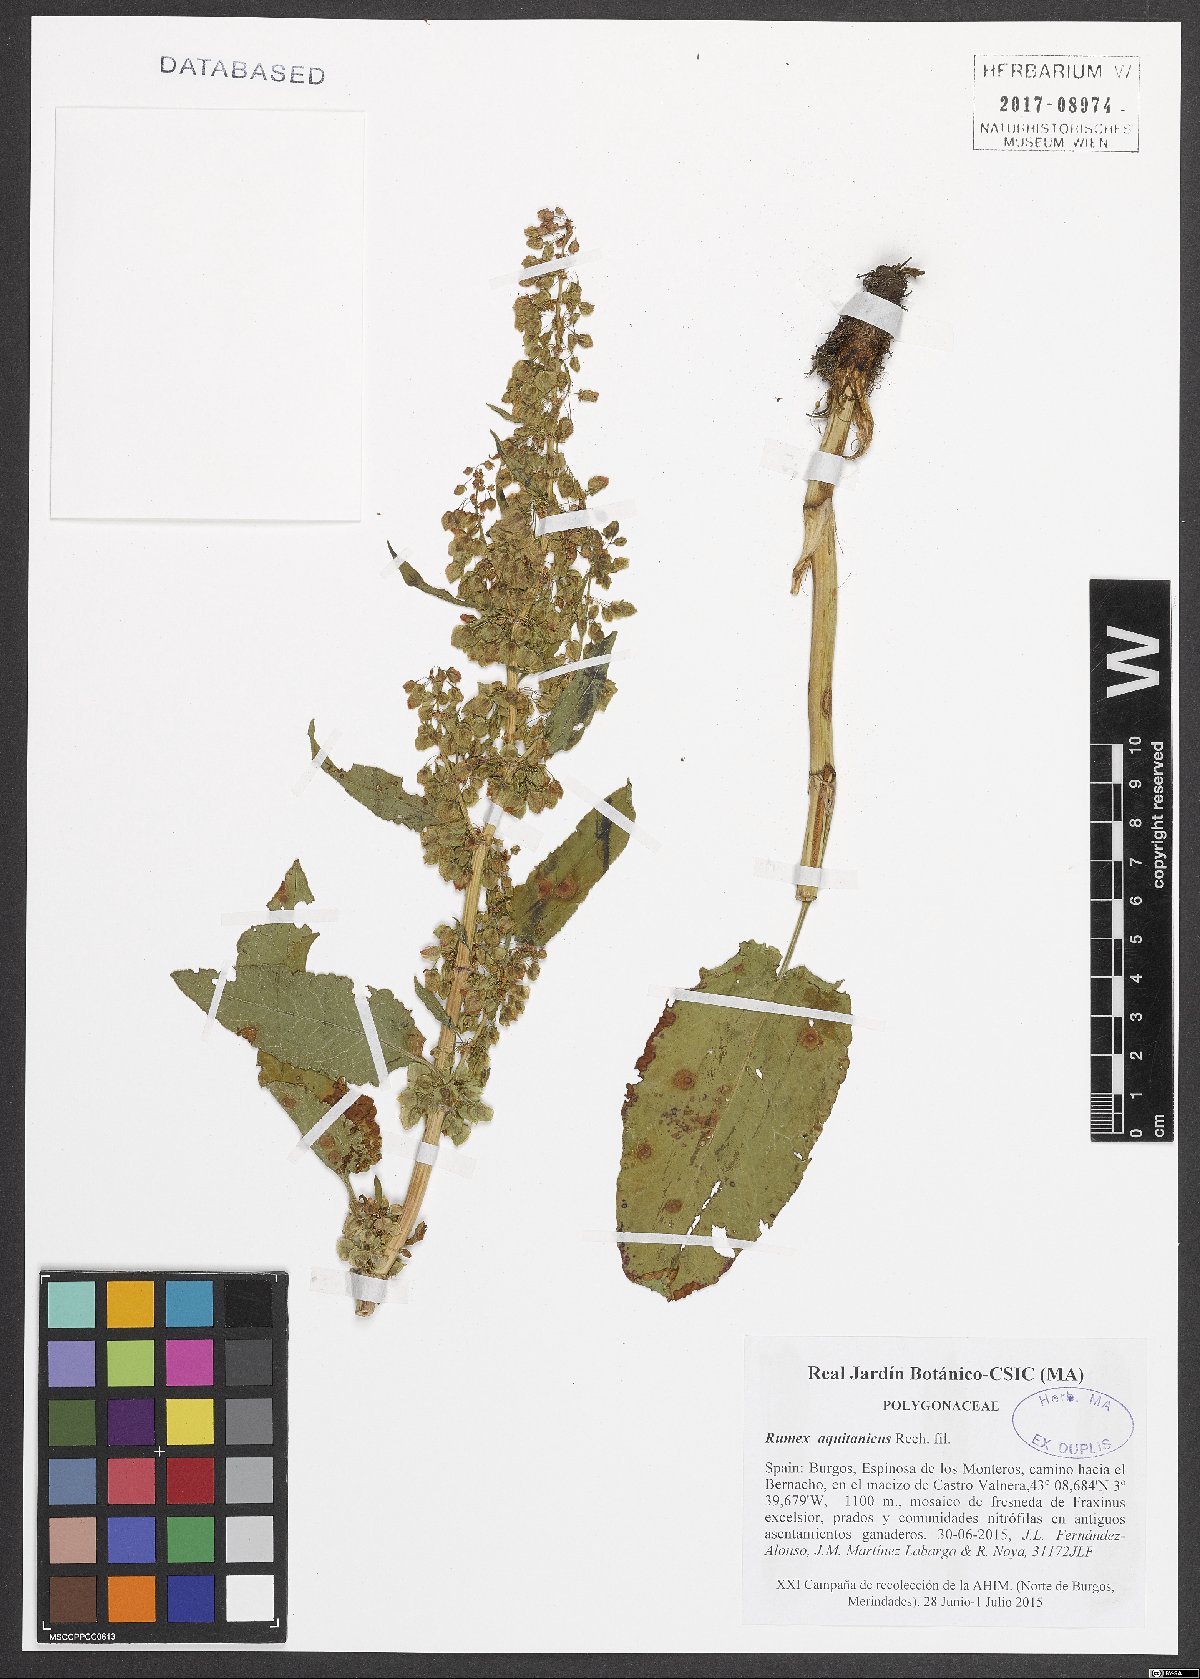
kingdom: Plantae
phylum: Tracheophyta
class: Magnoliopsida
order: Caryophyllales
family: Polygonaceae
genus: Rumex
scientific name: Rumex aquitanicus
